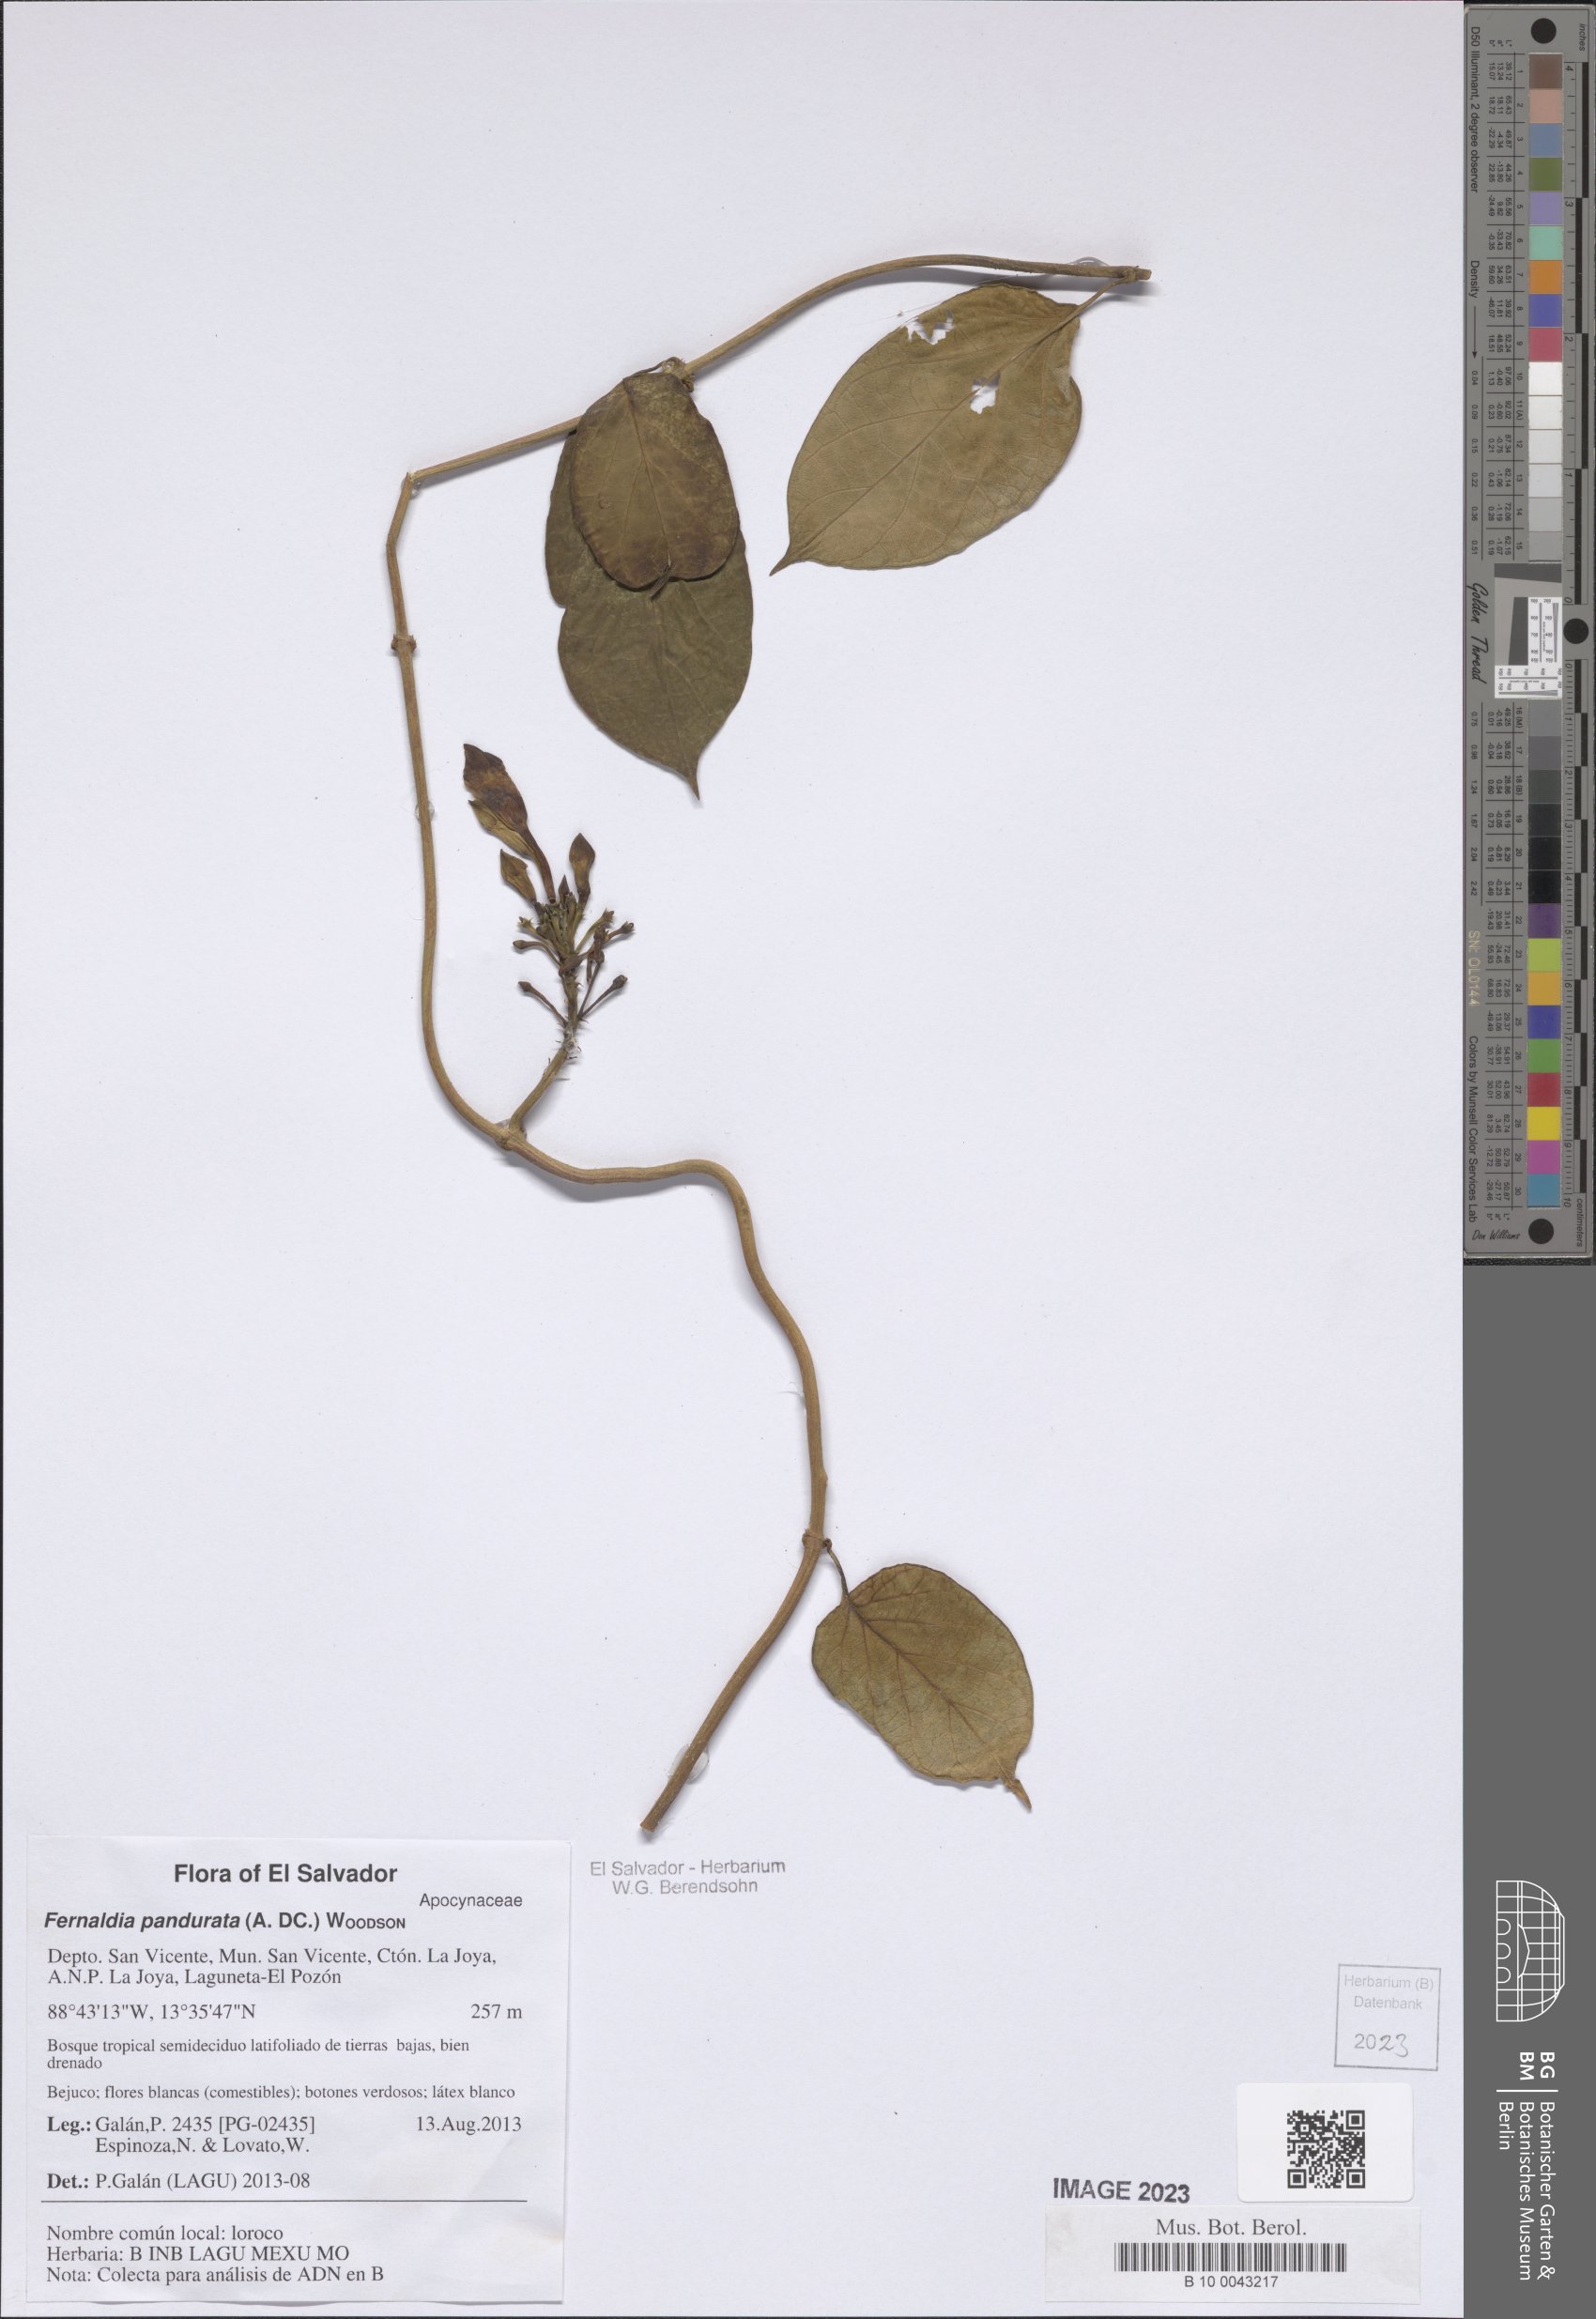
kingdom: Plantae
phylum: Tracheophyta
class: Magnoliopsida
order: Gentianales
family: Apocynaceae
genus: Echites
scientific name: Echites panduratus
